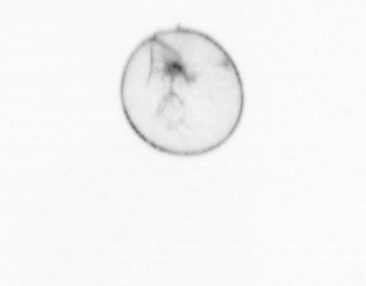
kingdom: Chromista
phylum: Myzozoa
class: Dinophyceae
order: Noctilucales
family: Noctilucaceae
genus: Noctiluca
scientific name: Noctiluca scintillans
